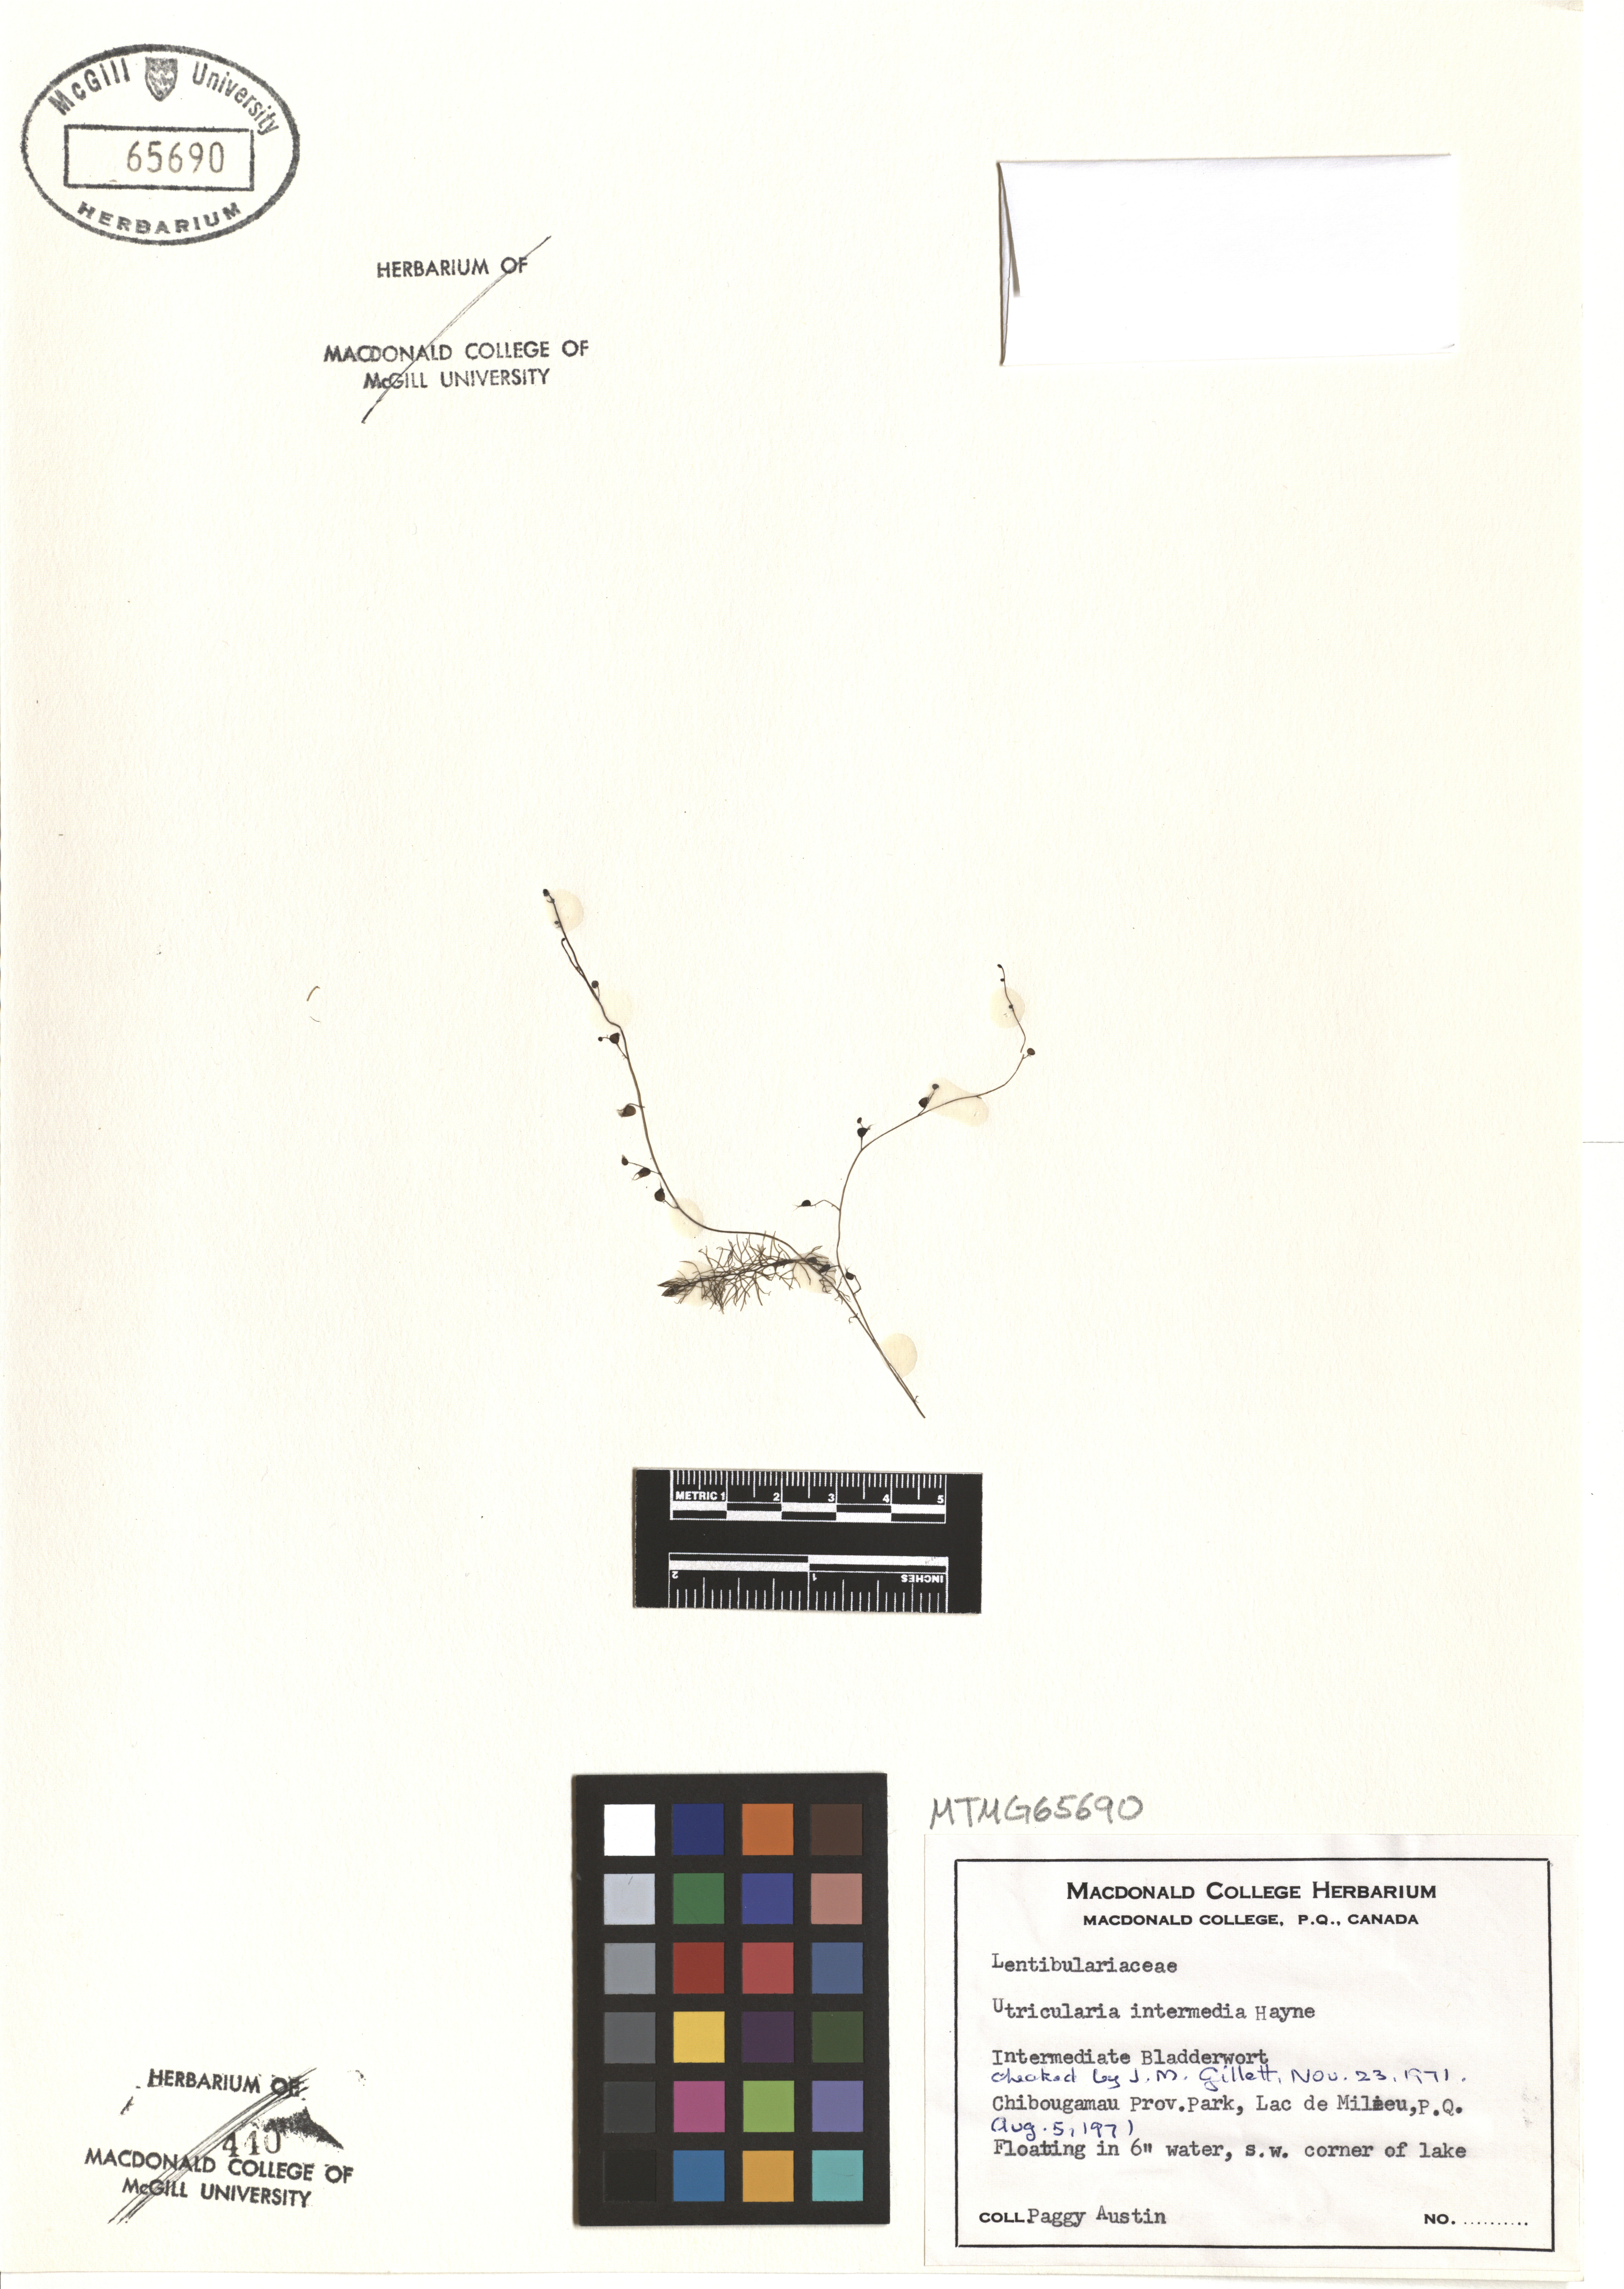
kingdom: Plantae
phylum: Tracheophyta
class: Magnoliopsida
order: Lamiales
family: Lentibulariaceae
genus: Utricularia
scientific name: Utricularia intermedia
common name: Intermediate bladderwort
